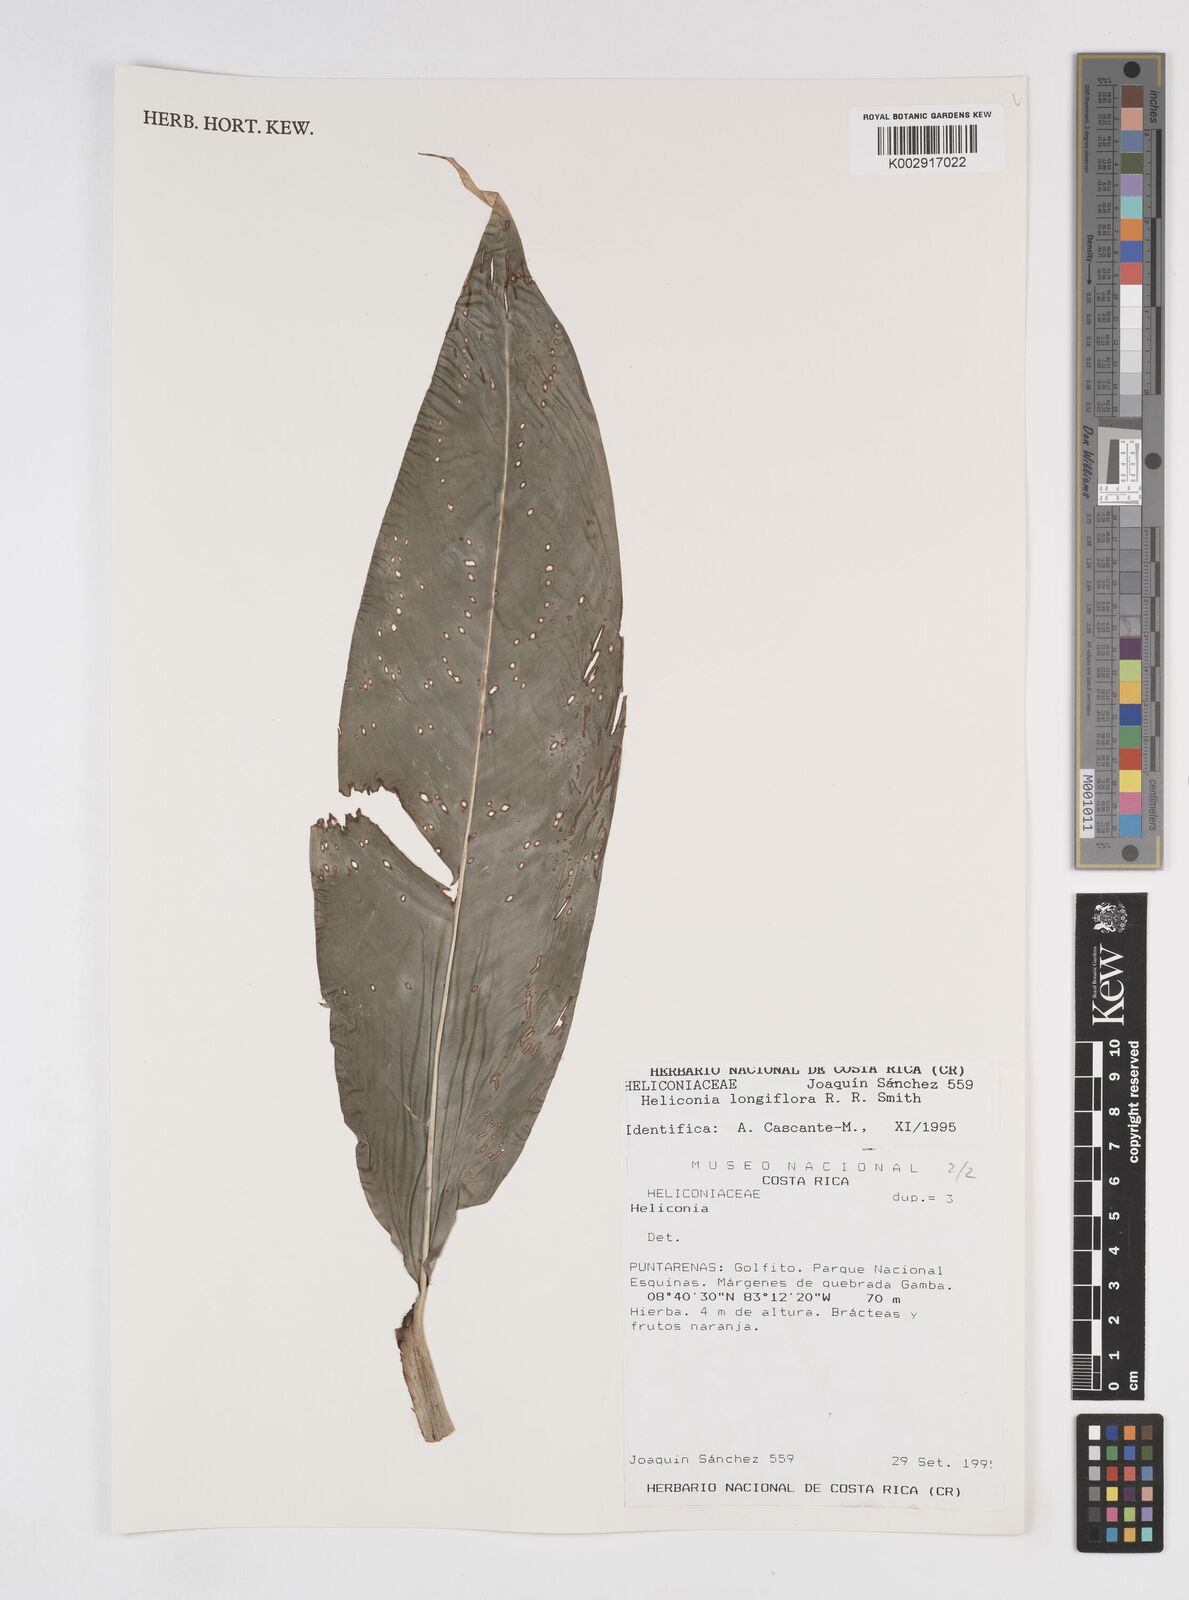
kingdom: Plantae
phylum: Tracheophyta
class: Liliopsida
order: Zingiberales
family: Heliconiaceae
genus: Heliconia
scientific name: Heliconia
